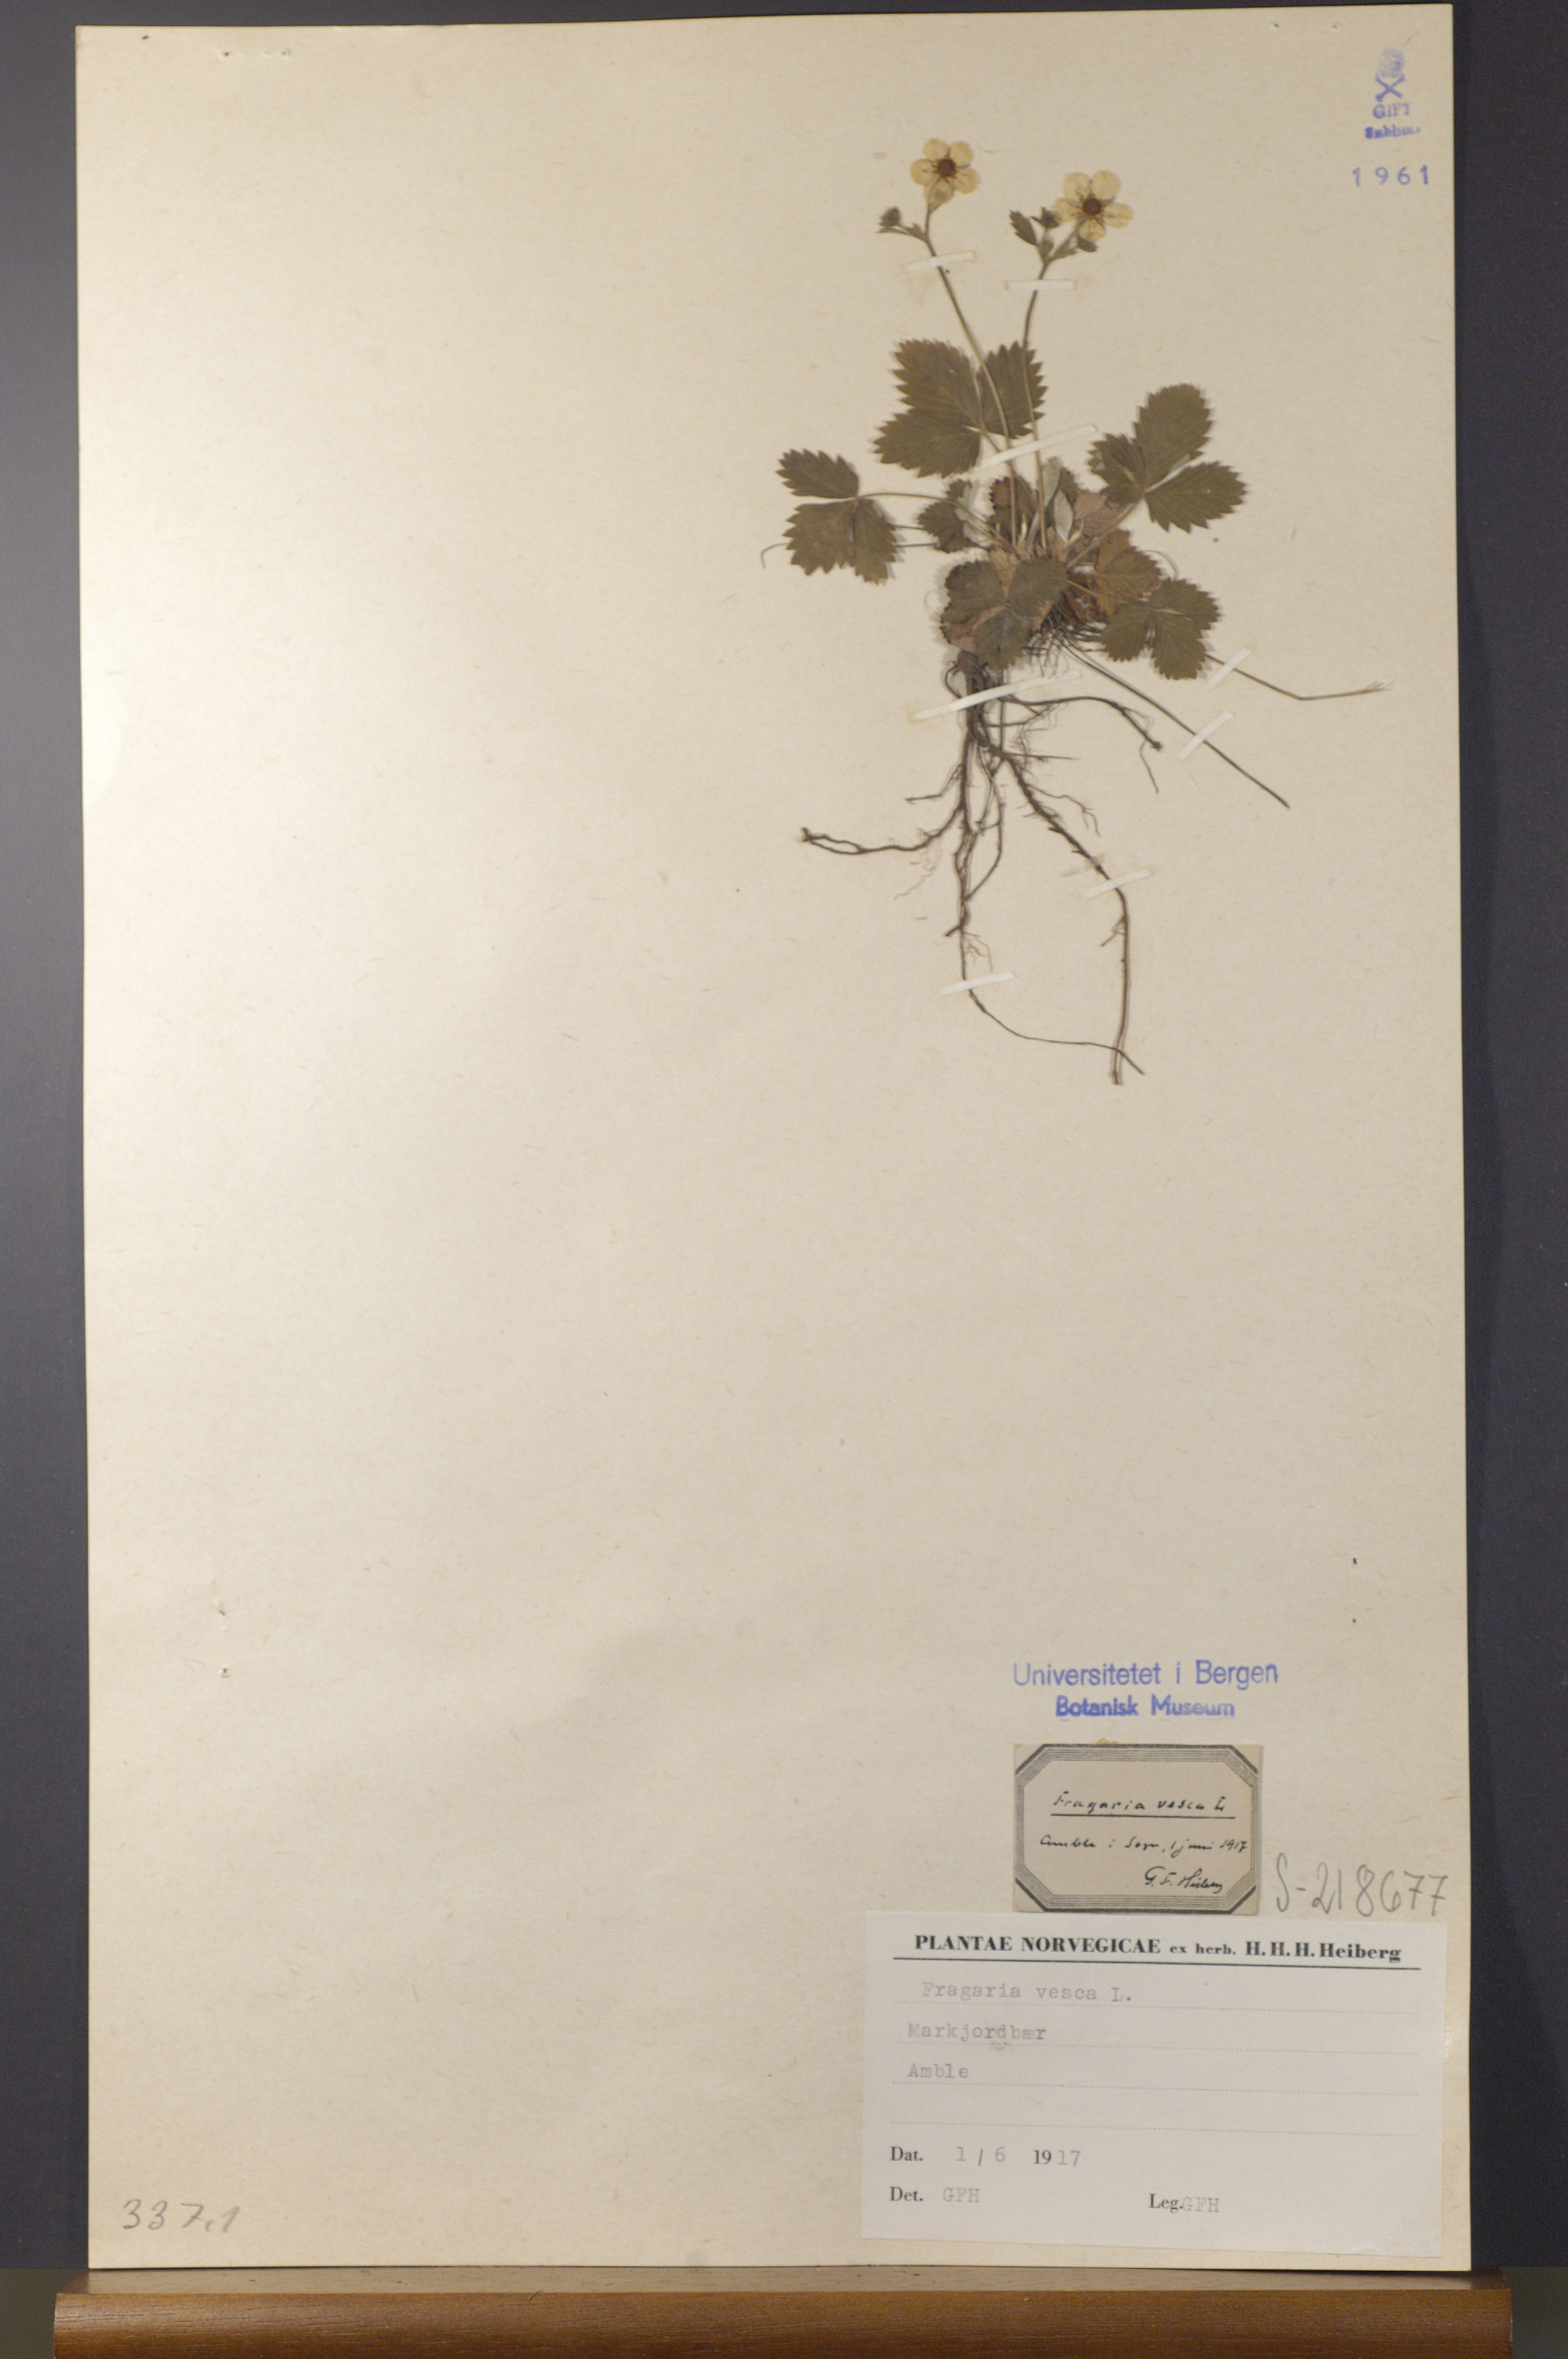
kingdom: Plantae
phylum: Tracheophyta
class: Magnoliopsida
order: Rosales
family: Rosaceae
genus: Fragaria
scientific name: Fragaria vesca
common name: Wild strawberry
